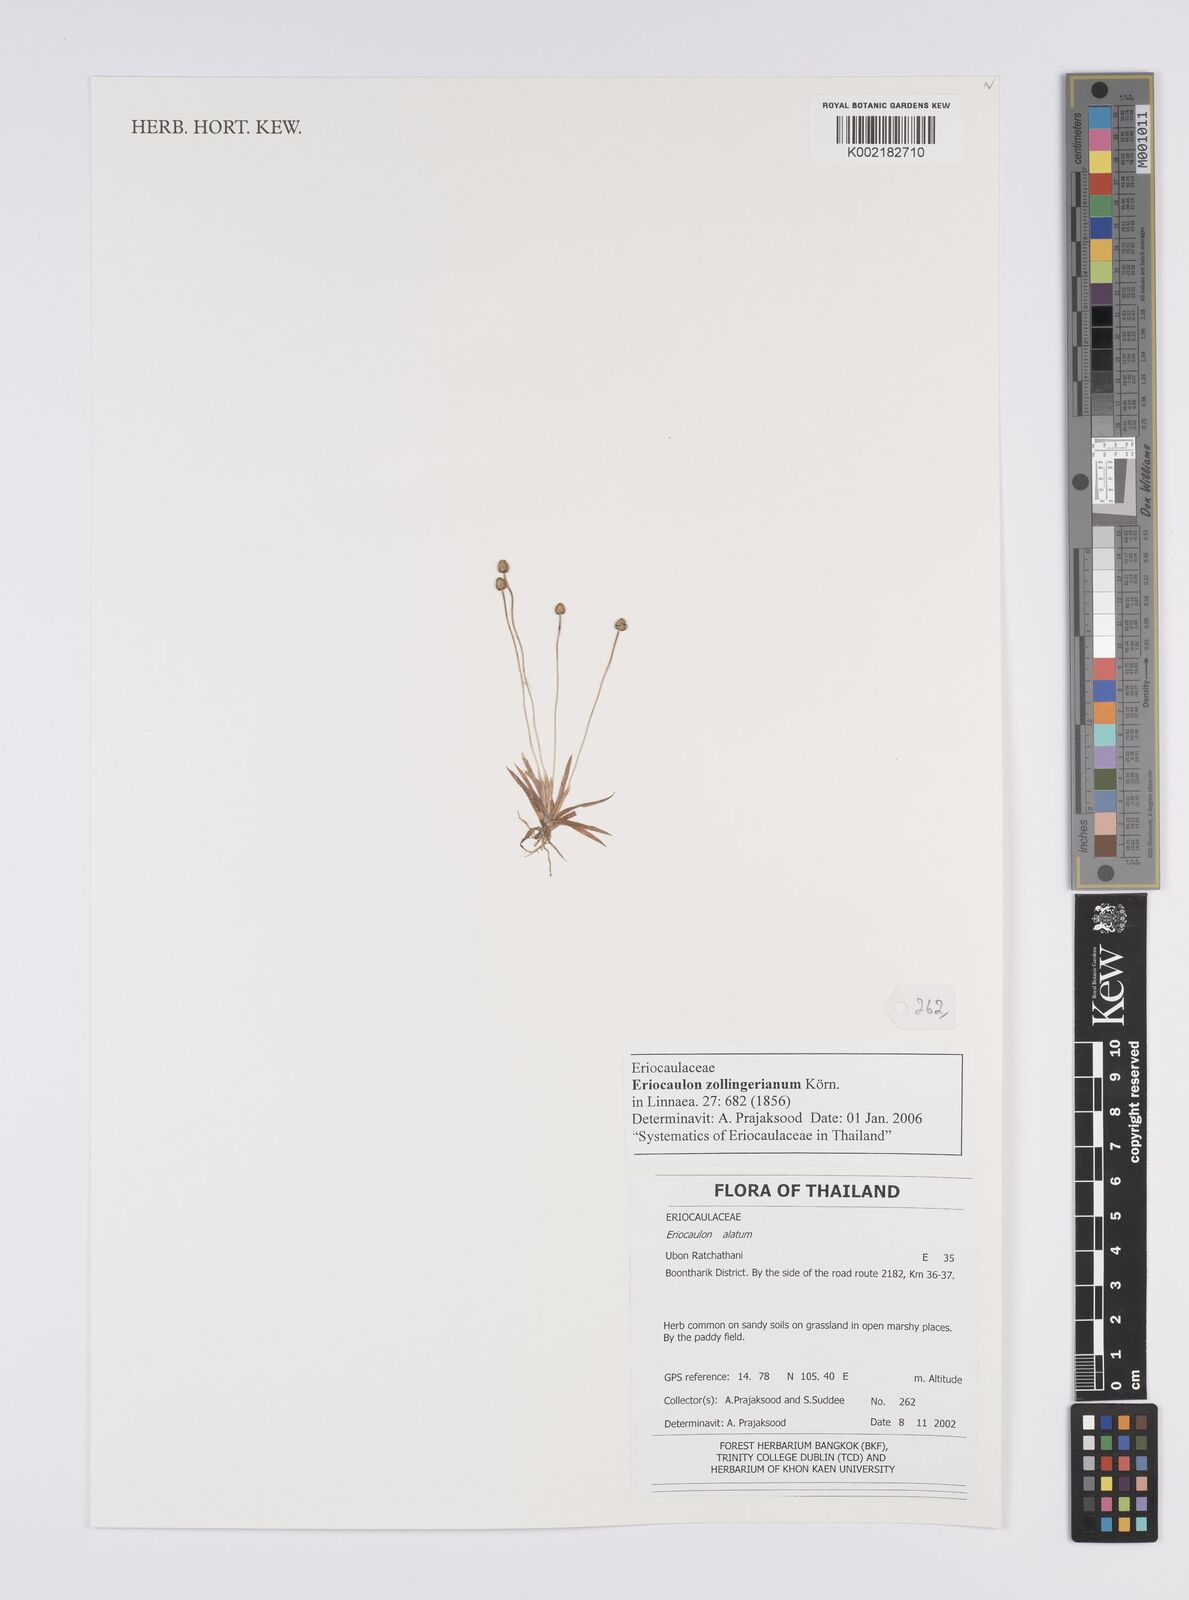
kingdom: Plantae
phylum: Tracheophyta
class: Liliopsida
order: Poales
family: Eriocaulaceae
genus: Eriocaulon
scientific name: Eriocaulon zollingerianum
